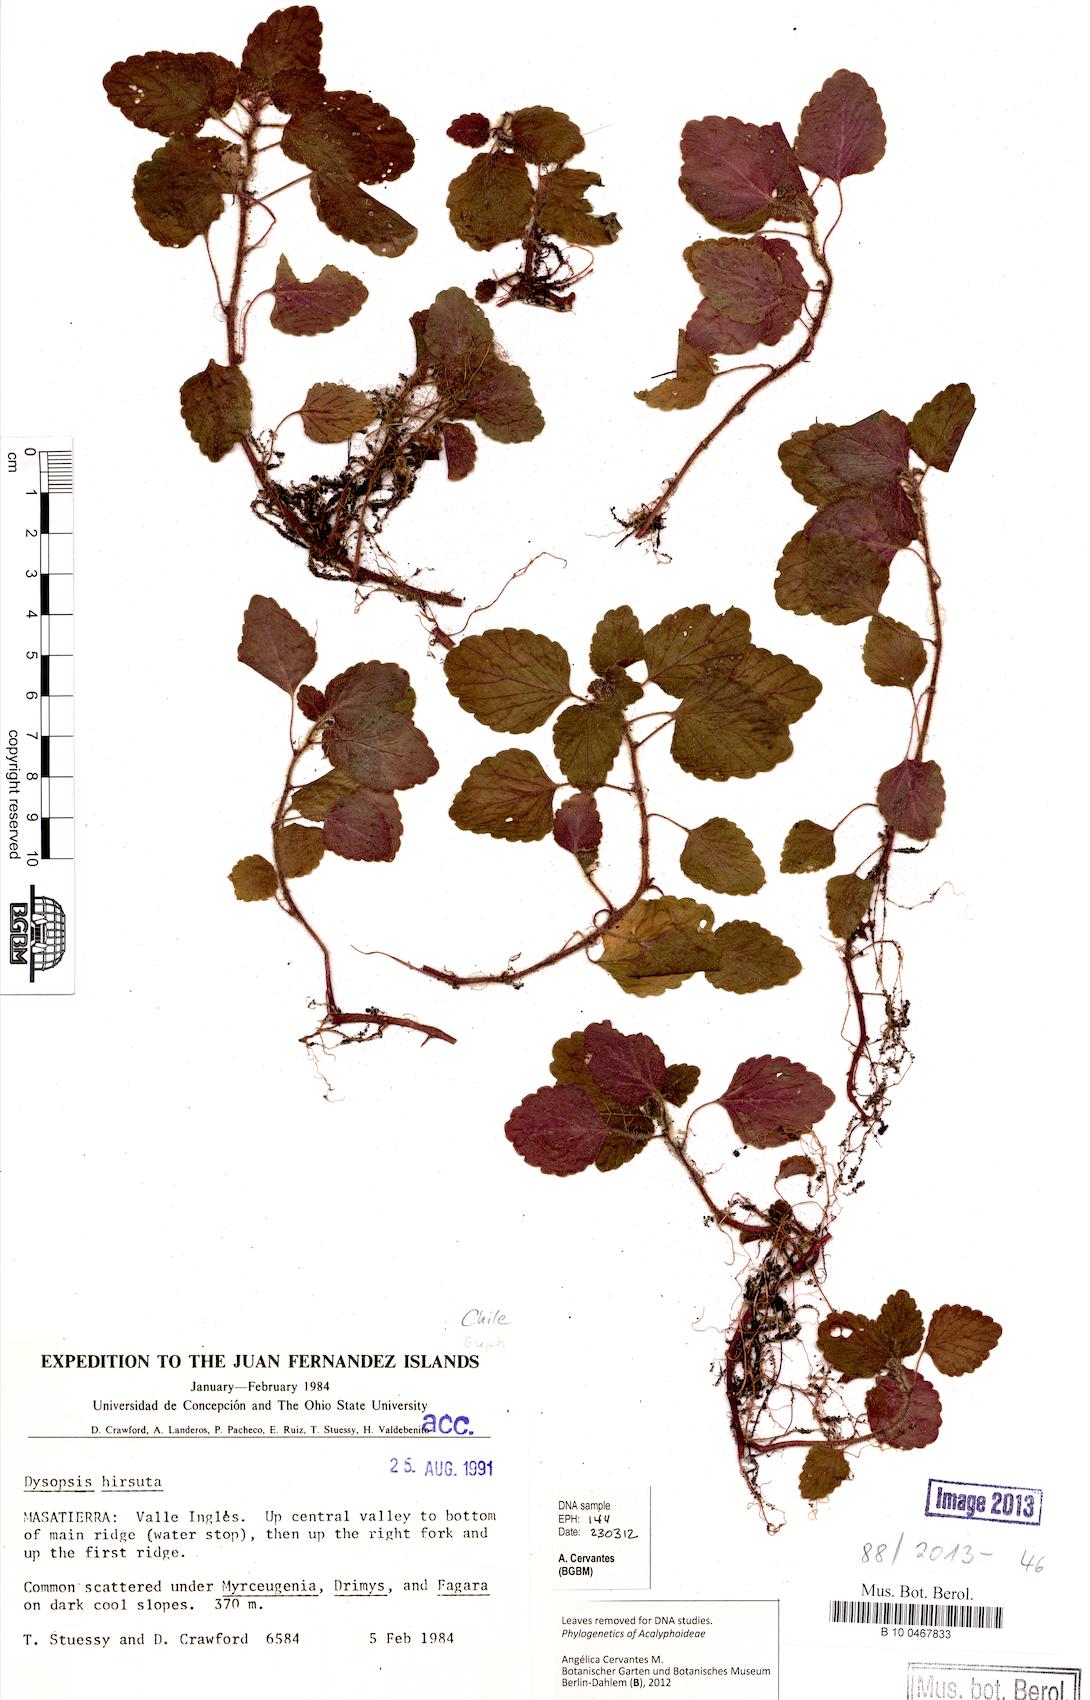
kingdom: Plantae
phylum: Tracheophyta
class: Magnoliopsida
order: Malpighiales
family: Euphorbiaceae
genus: Dysopsis
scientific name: Dysopsis hirsuta
